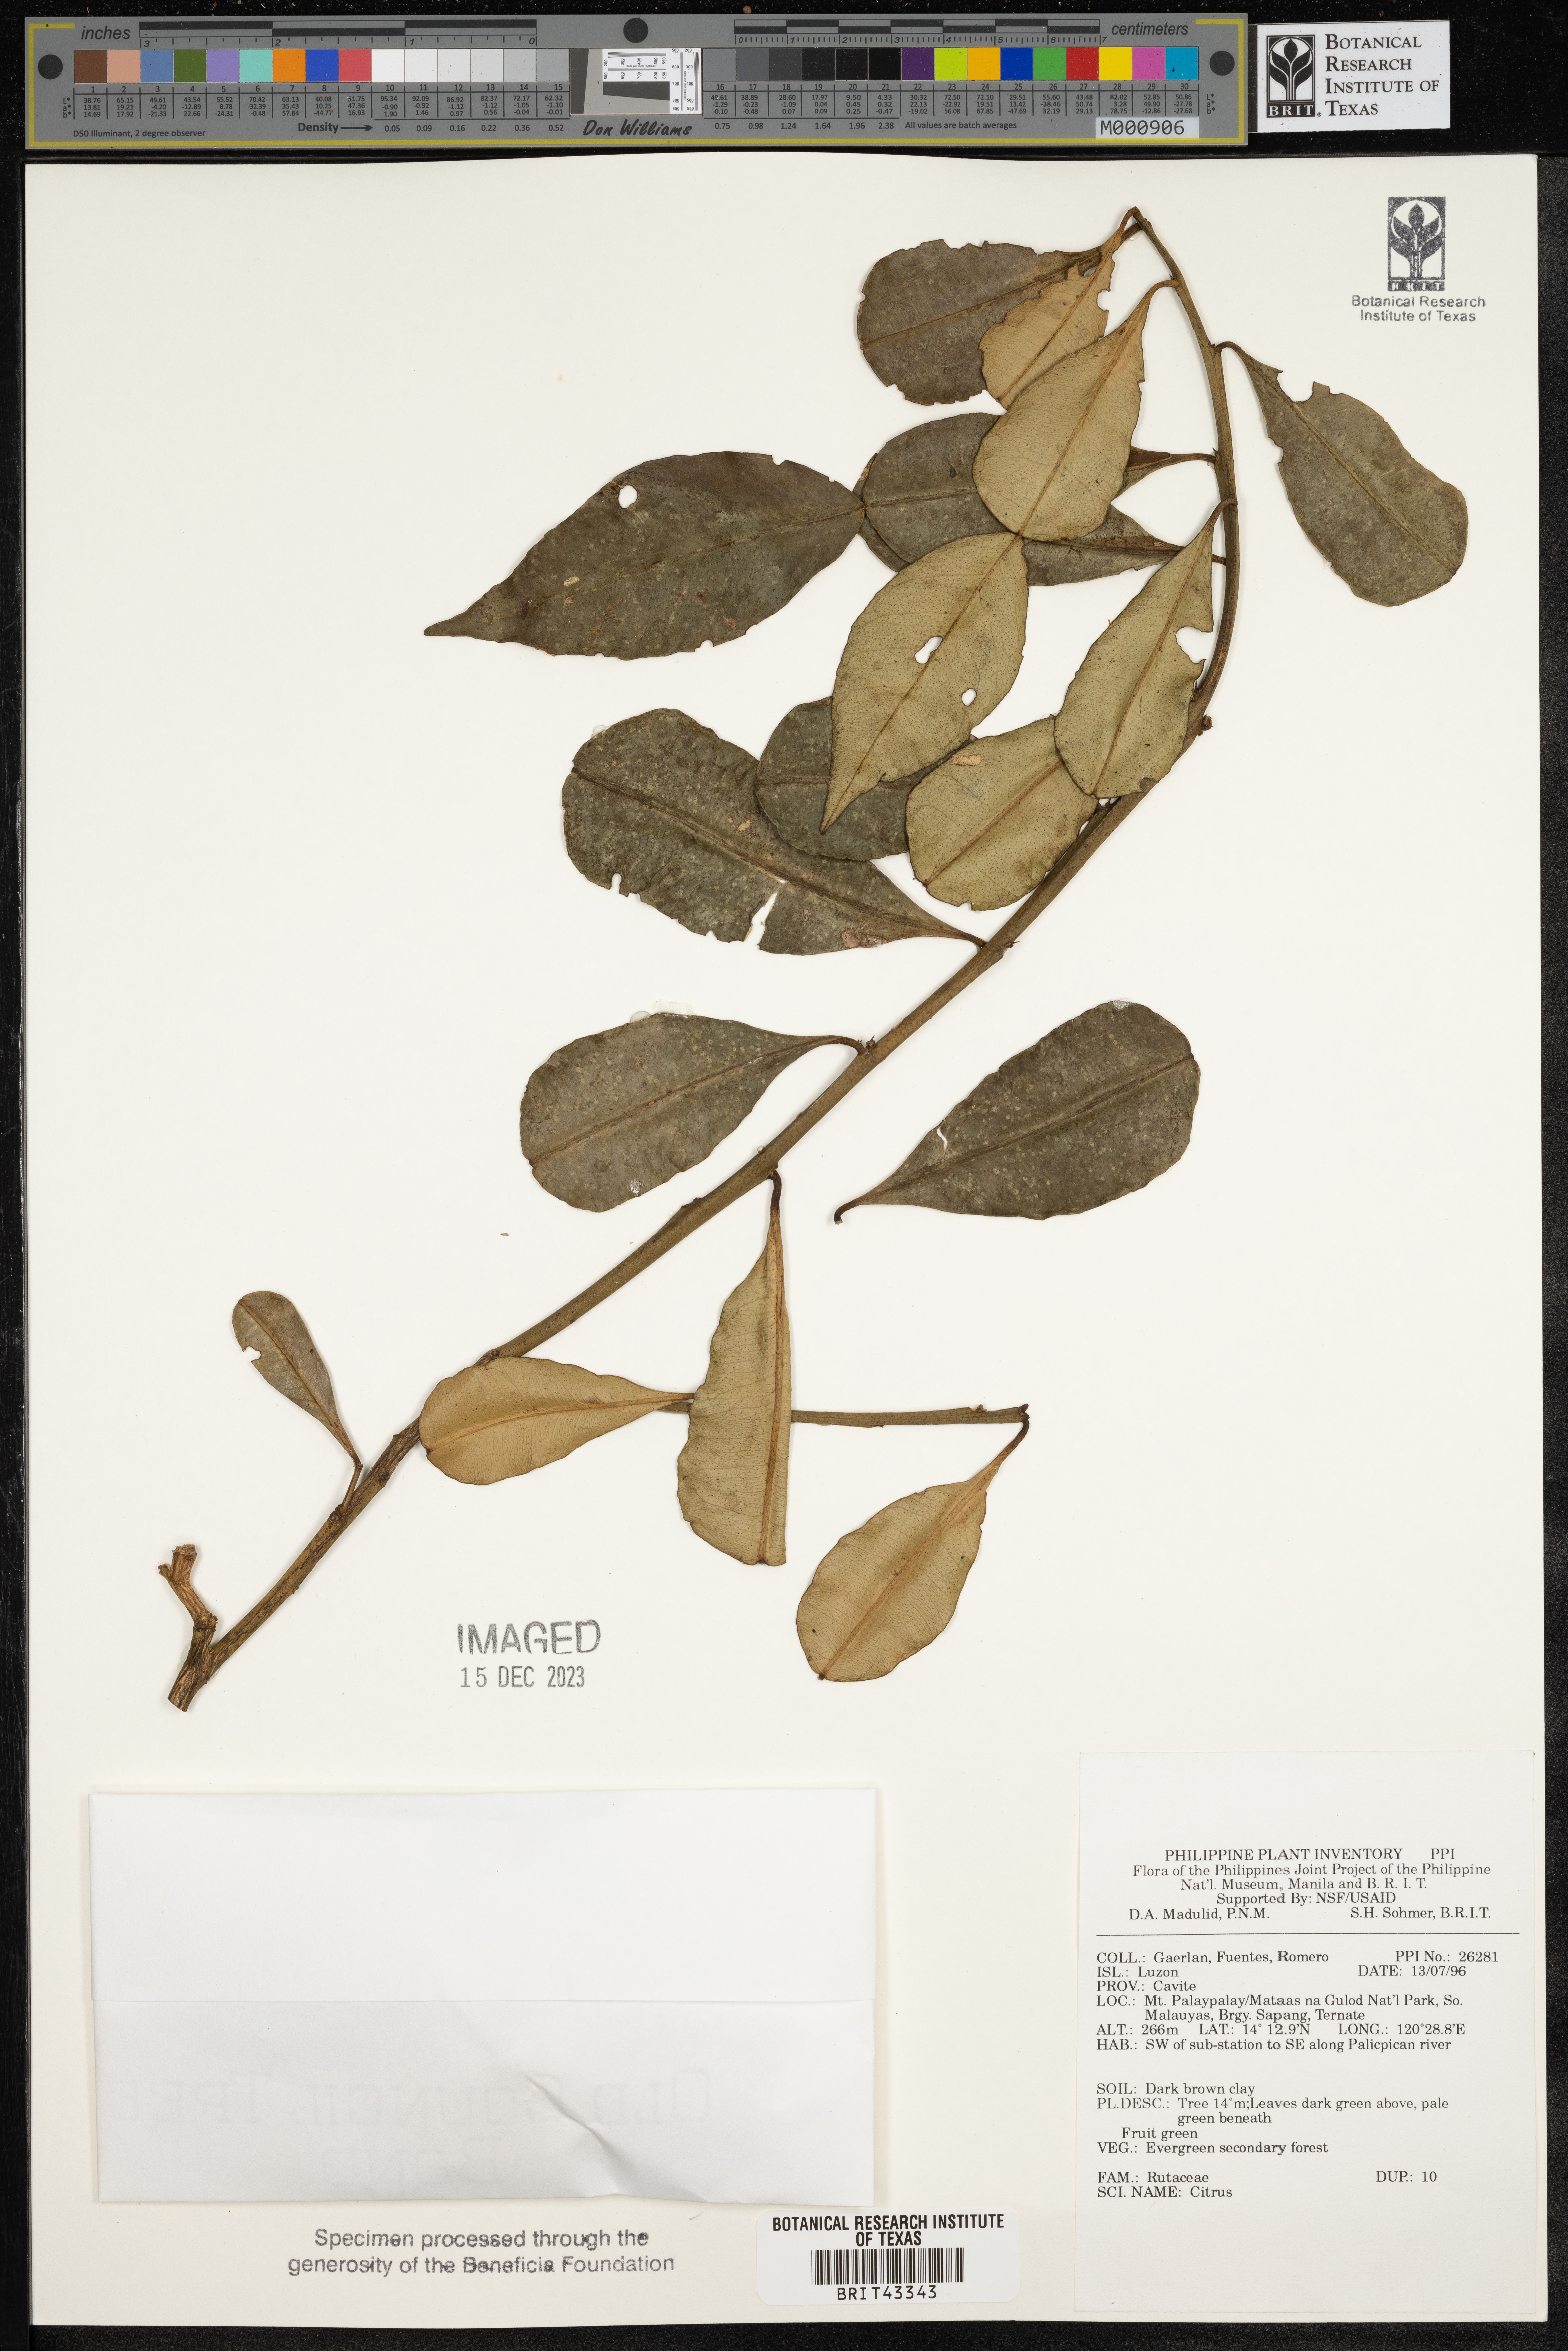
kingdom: Plantae
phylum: Tracheophyta
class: Magnoliopsida
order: Sapindales
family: Rutaceae
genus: Citrus
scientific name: Citrus
